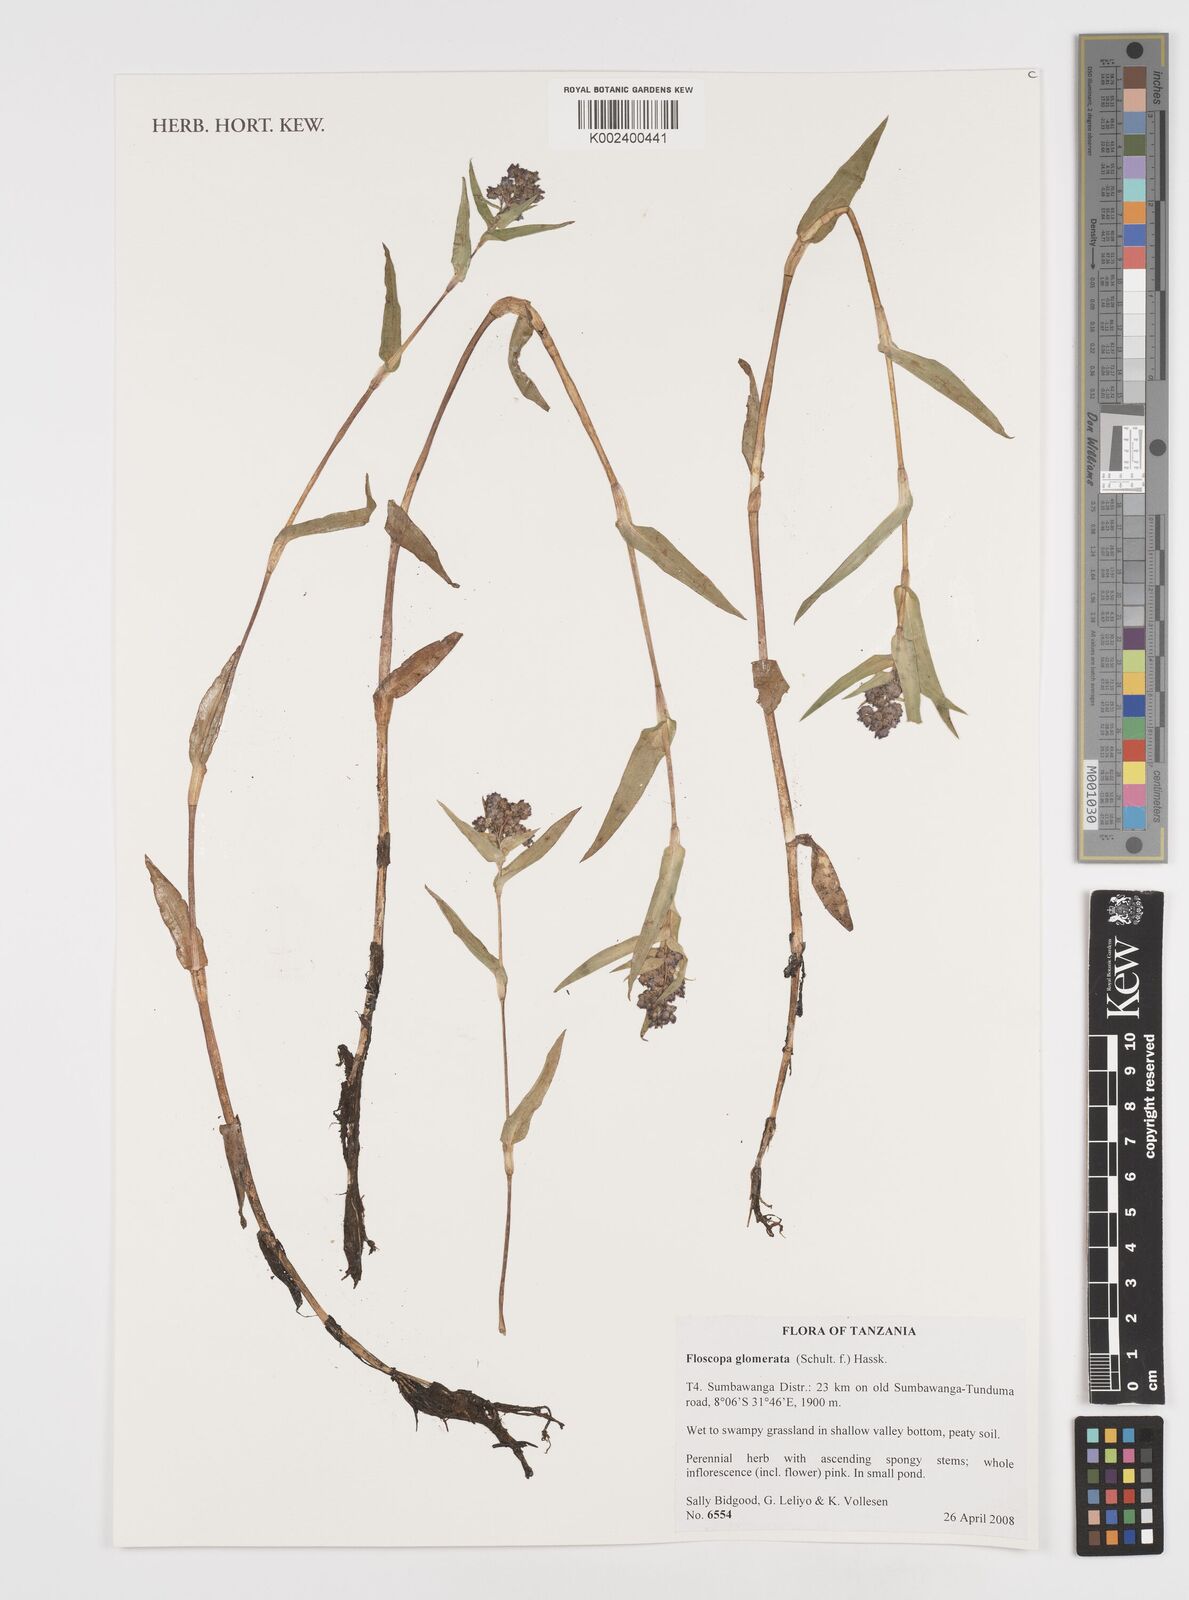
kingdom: Plantae
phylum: Tracheophyta
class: Liliopsida
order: Commelinales
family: Commelinaceae
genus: Floscopa
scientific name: Floscopa glomerata
